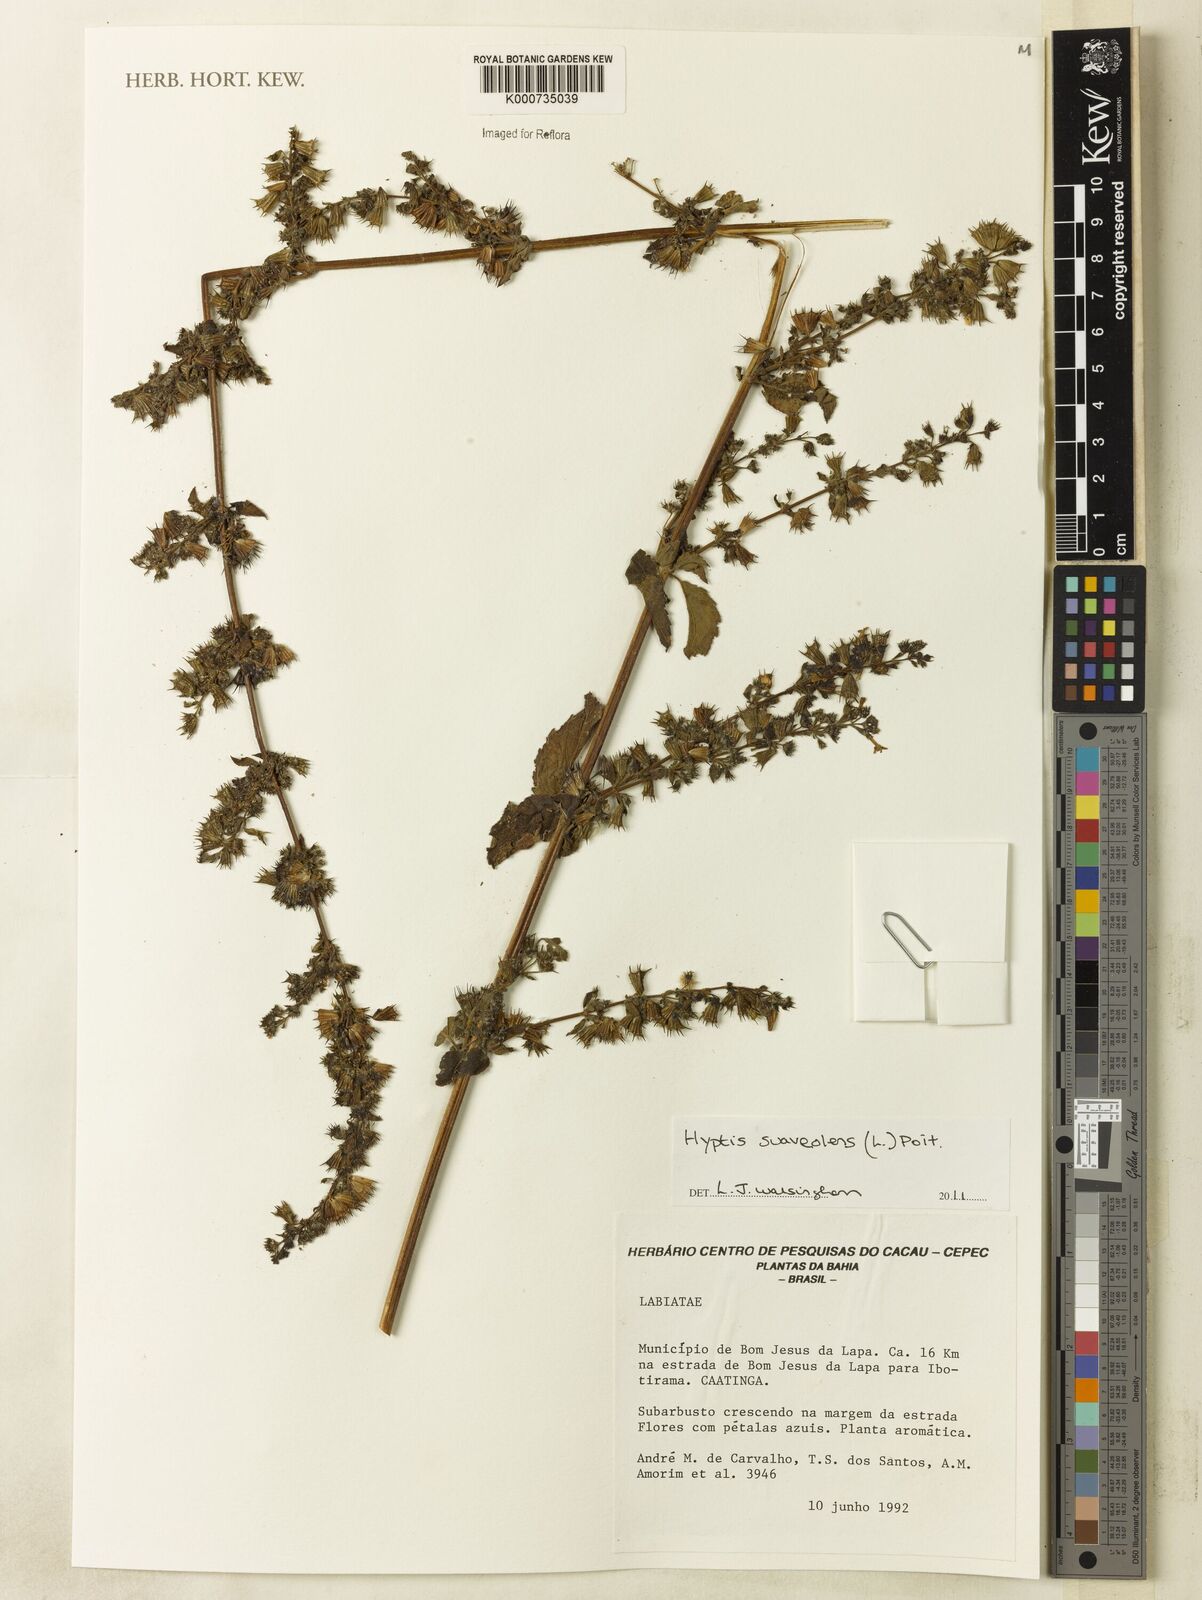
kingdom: Plantae
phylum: Tracheophyta
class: Magnoliopsida
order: Lamiales
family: Lamiaceae
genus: Mesosphaerum
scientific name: Mesosphaerum suaveolens
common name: Pignut
